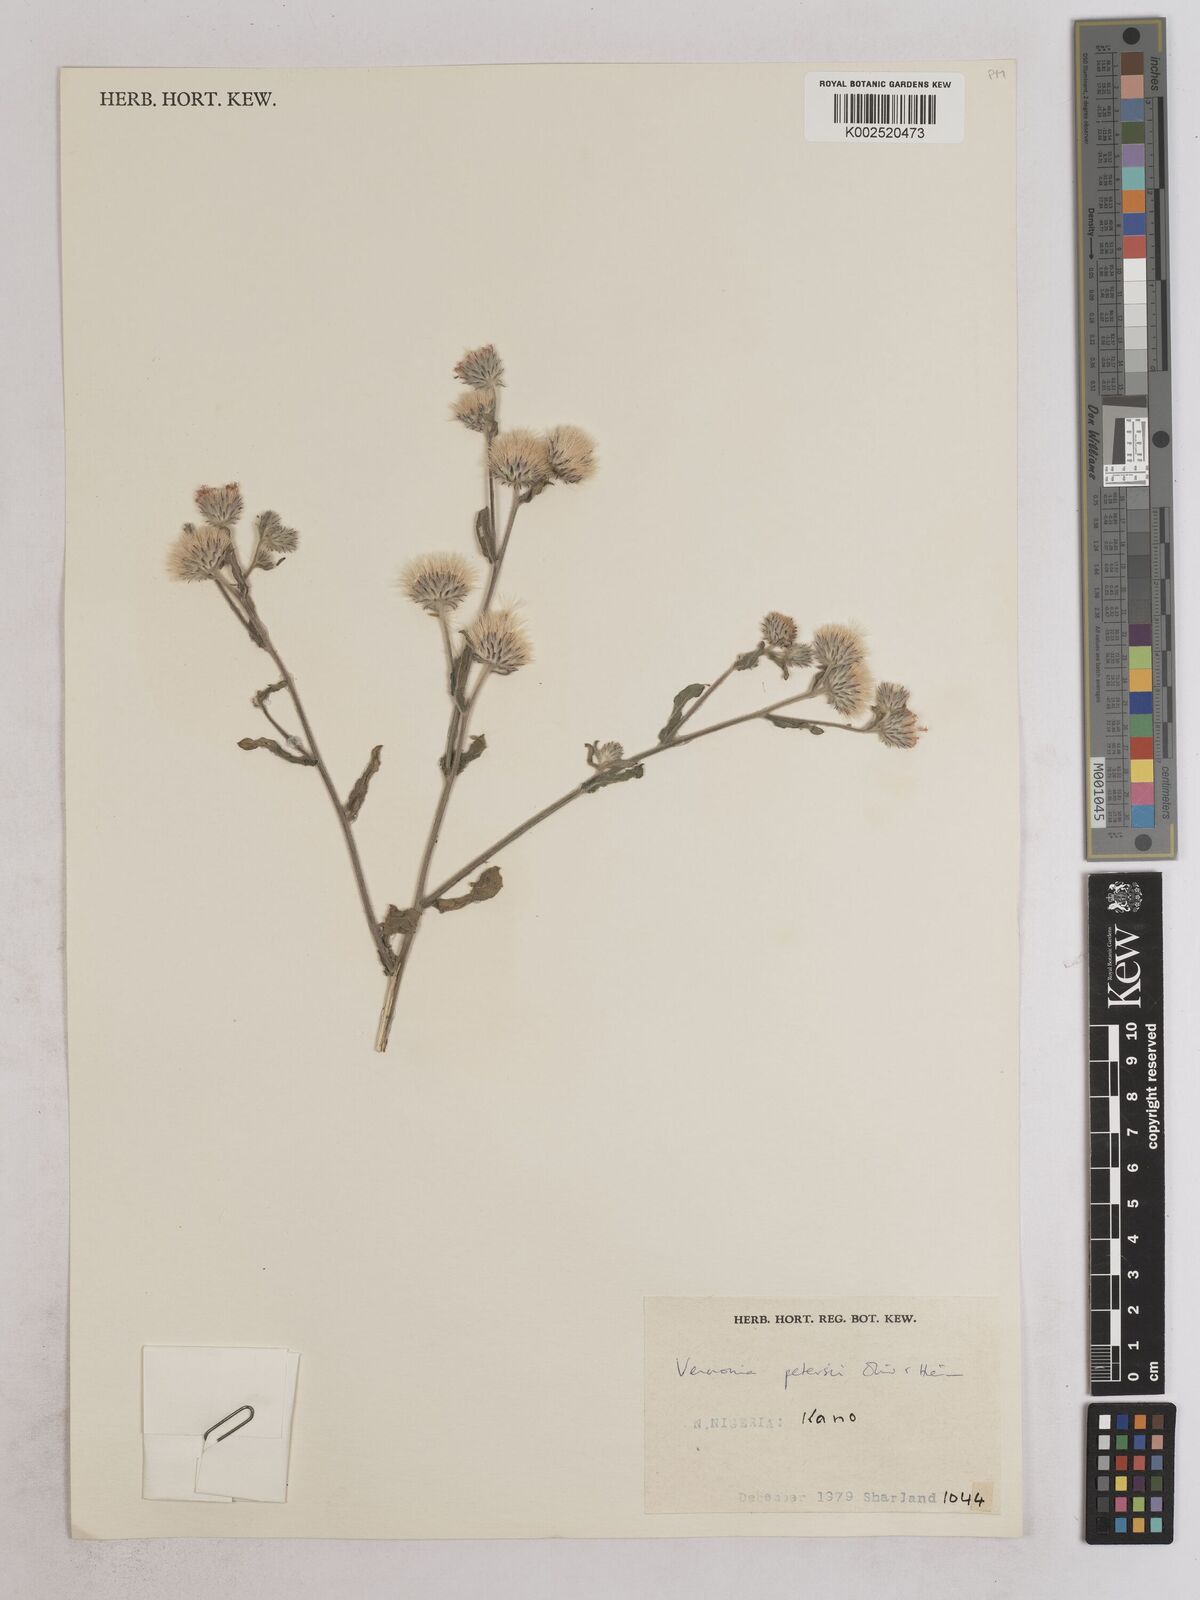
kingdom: Plantae
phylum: Tracheophyta
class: Magnoliopsida
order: Asterales
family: Asteraceae
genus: Vernoniastrum
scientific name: Vernoniastrum ambiguum
